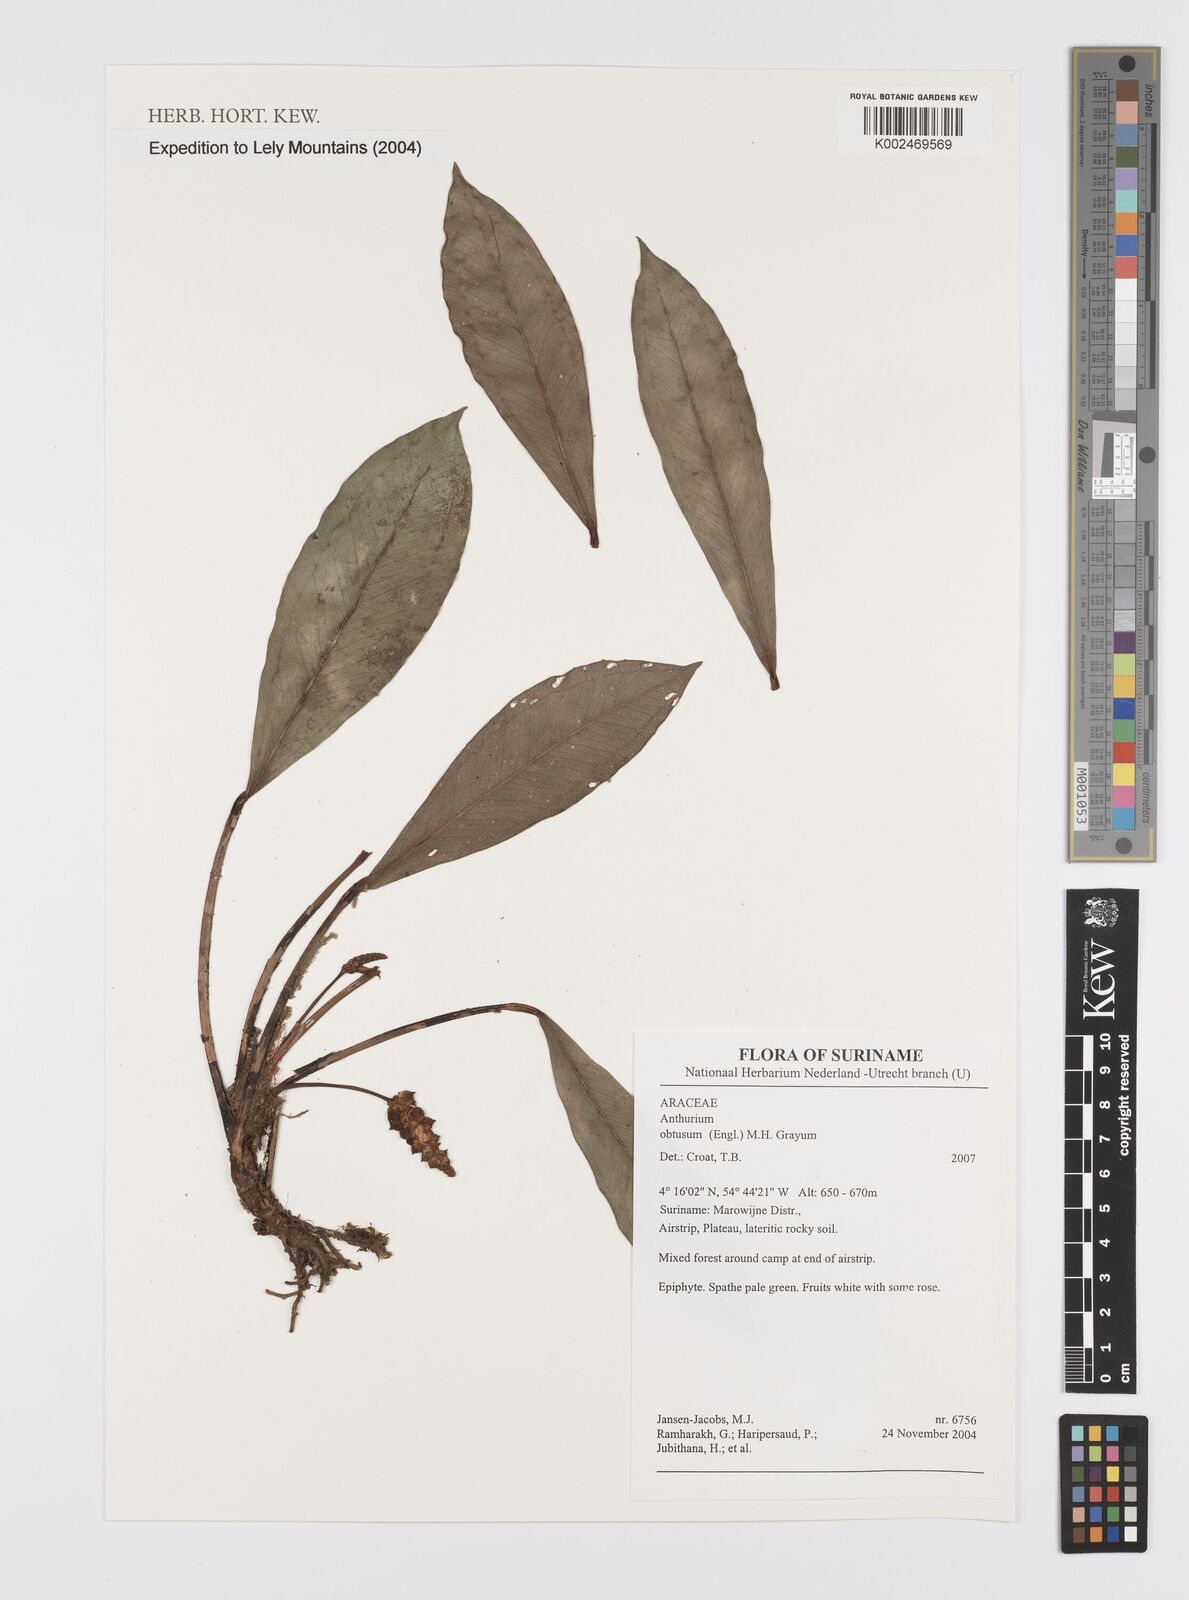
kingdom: Plantae
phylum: Tracheophyta
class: Liliopsida
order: Alismatales
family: Araceae
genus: Anthurium
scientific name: Anthurium obtusum
